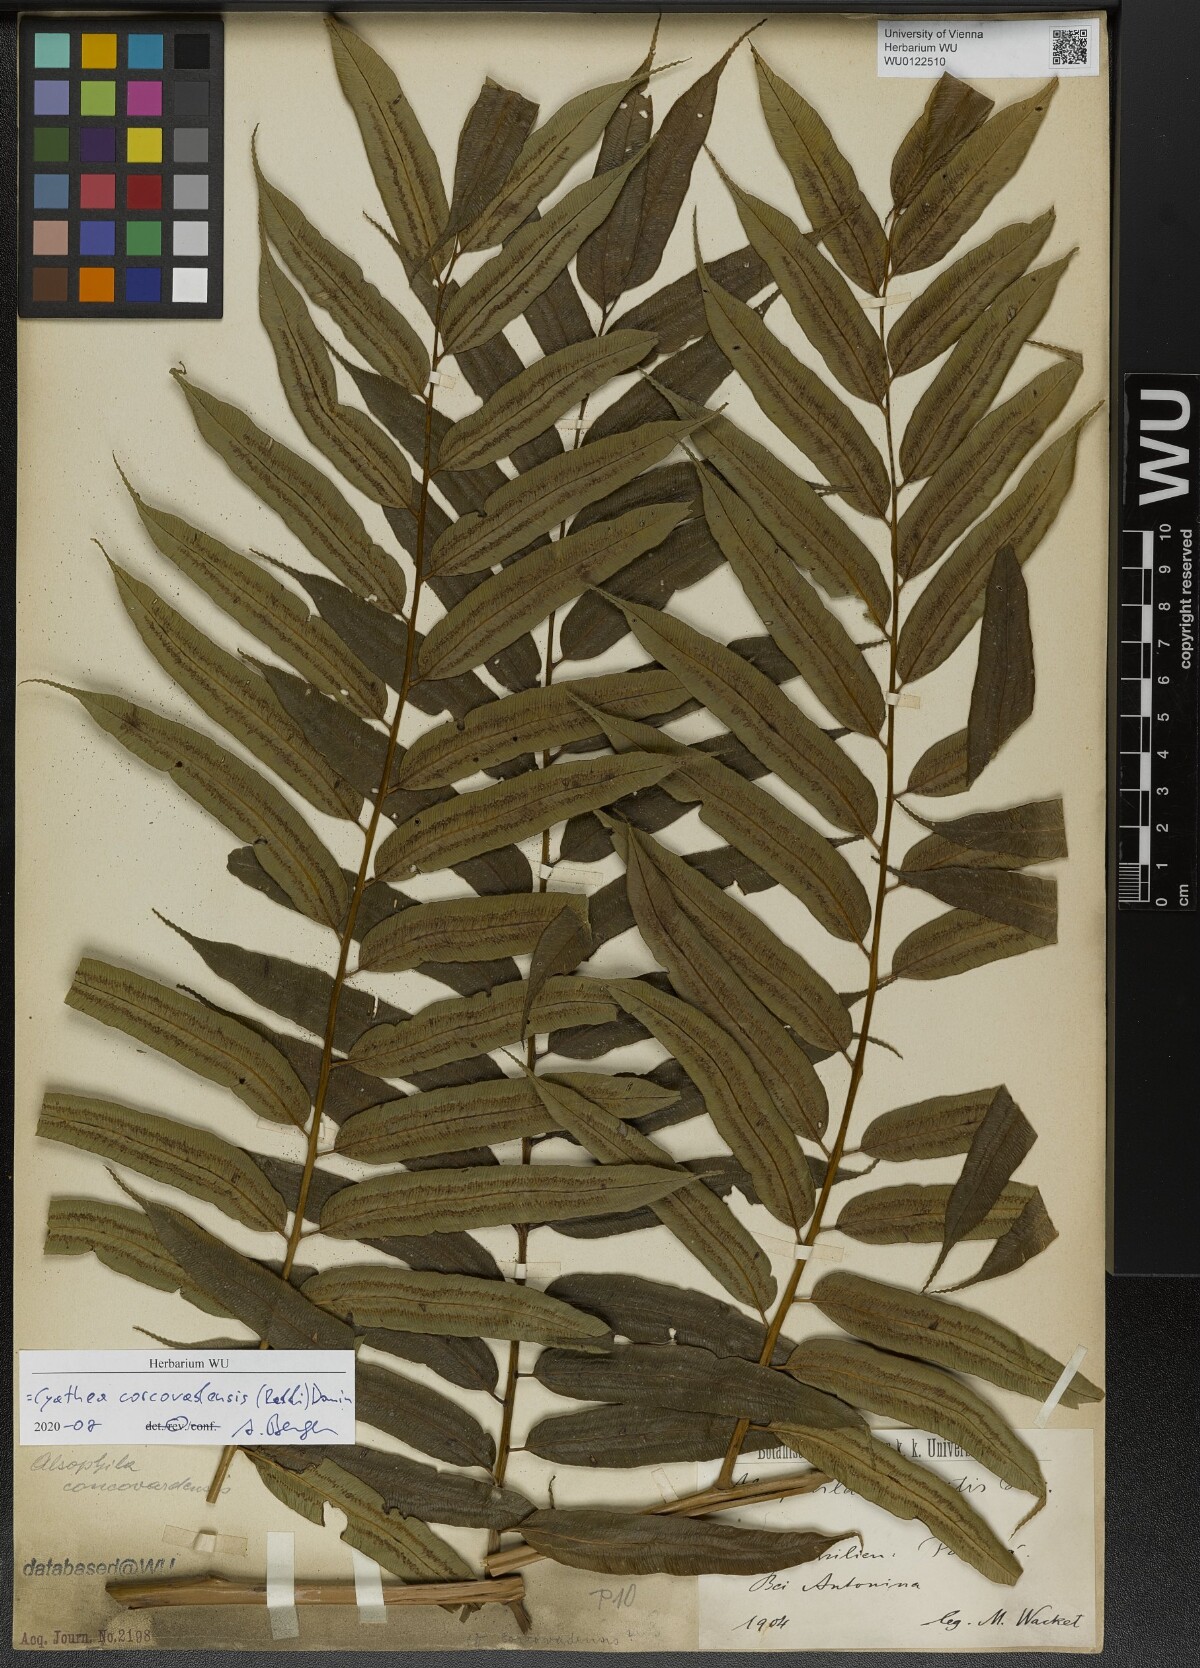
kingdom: Plantae
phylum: Tracheophyta
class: Polypodiopsida
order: Cyatheales
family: Cyatheaceae
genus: Cyathea
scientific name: Cyathea corcovadensis
